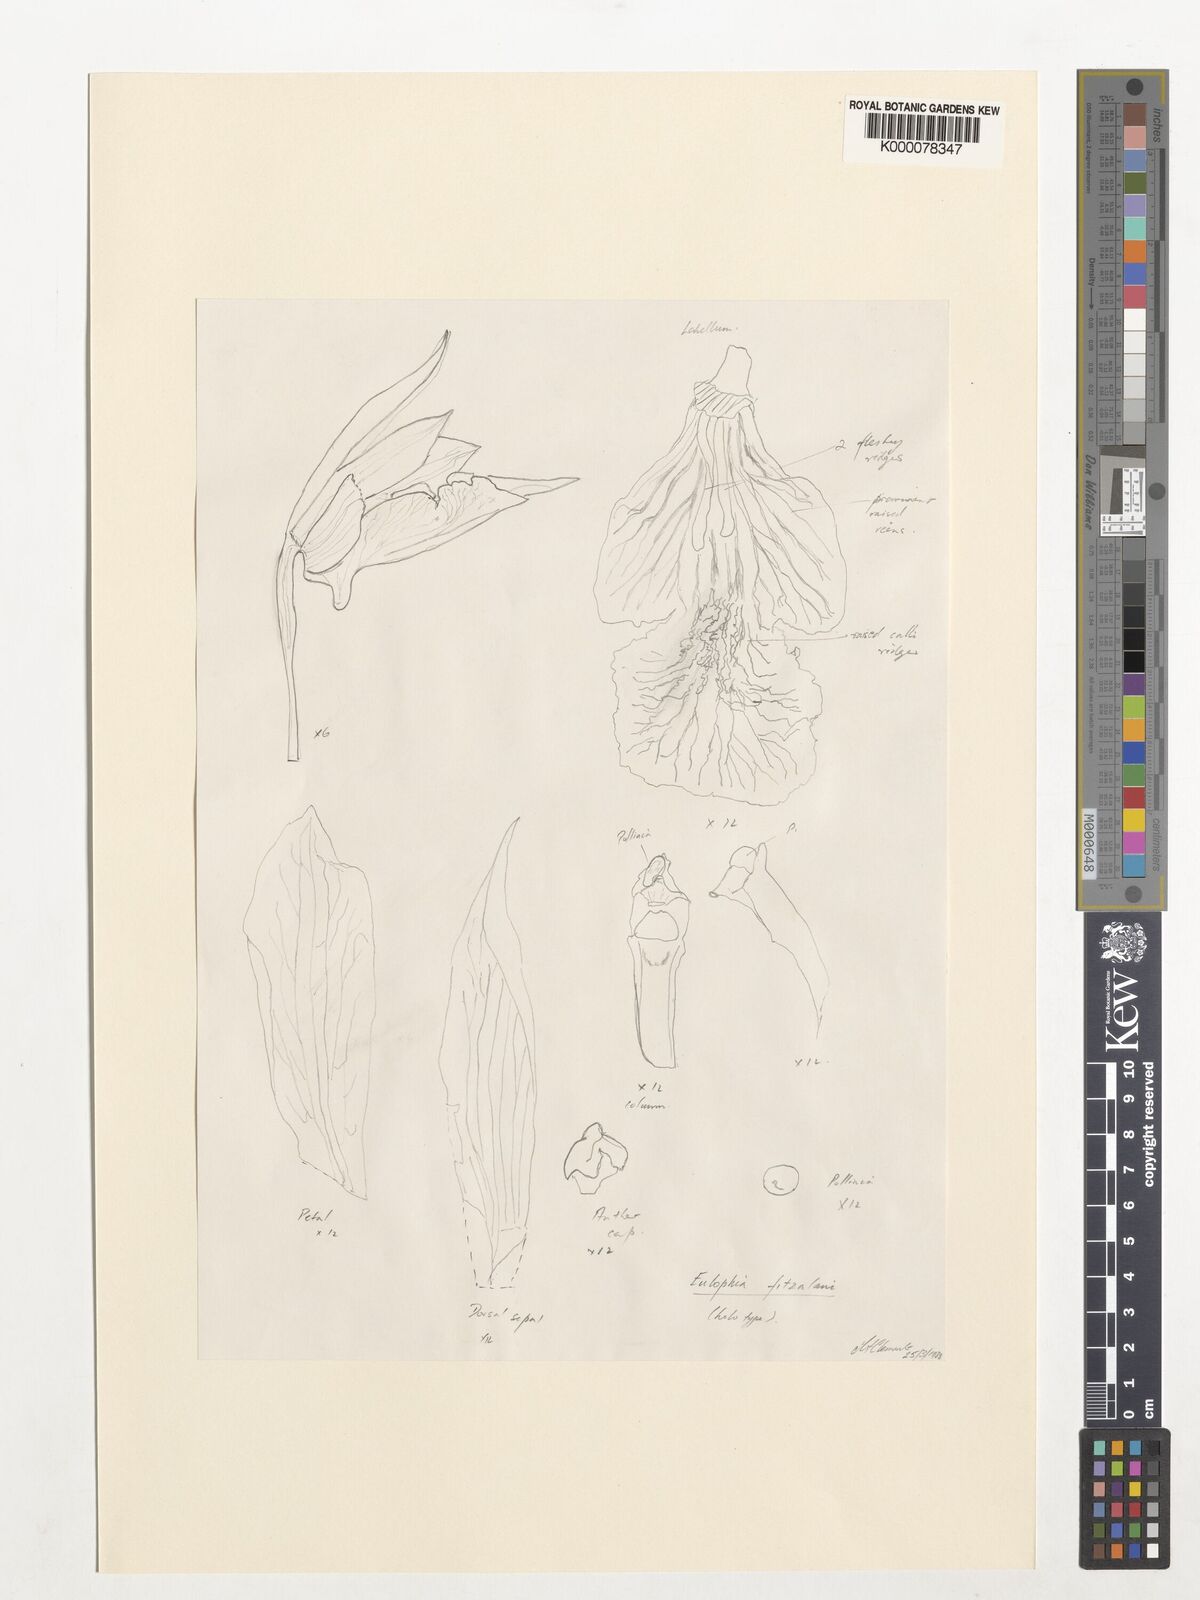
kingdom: Plantae
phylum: Tracheophyta
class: Liliopsida
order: Asparagales
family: Orchidaceae
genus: Eulophia
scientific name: Eulophia bicallosa
